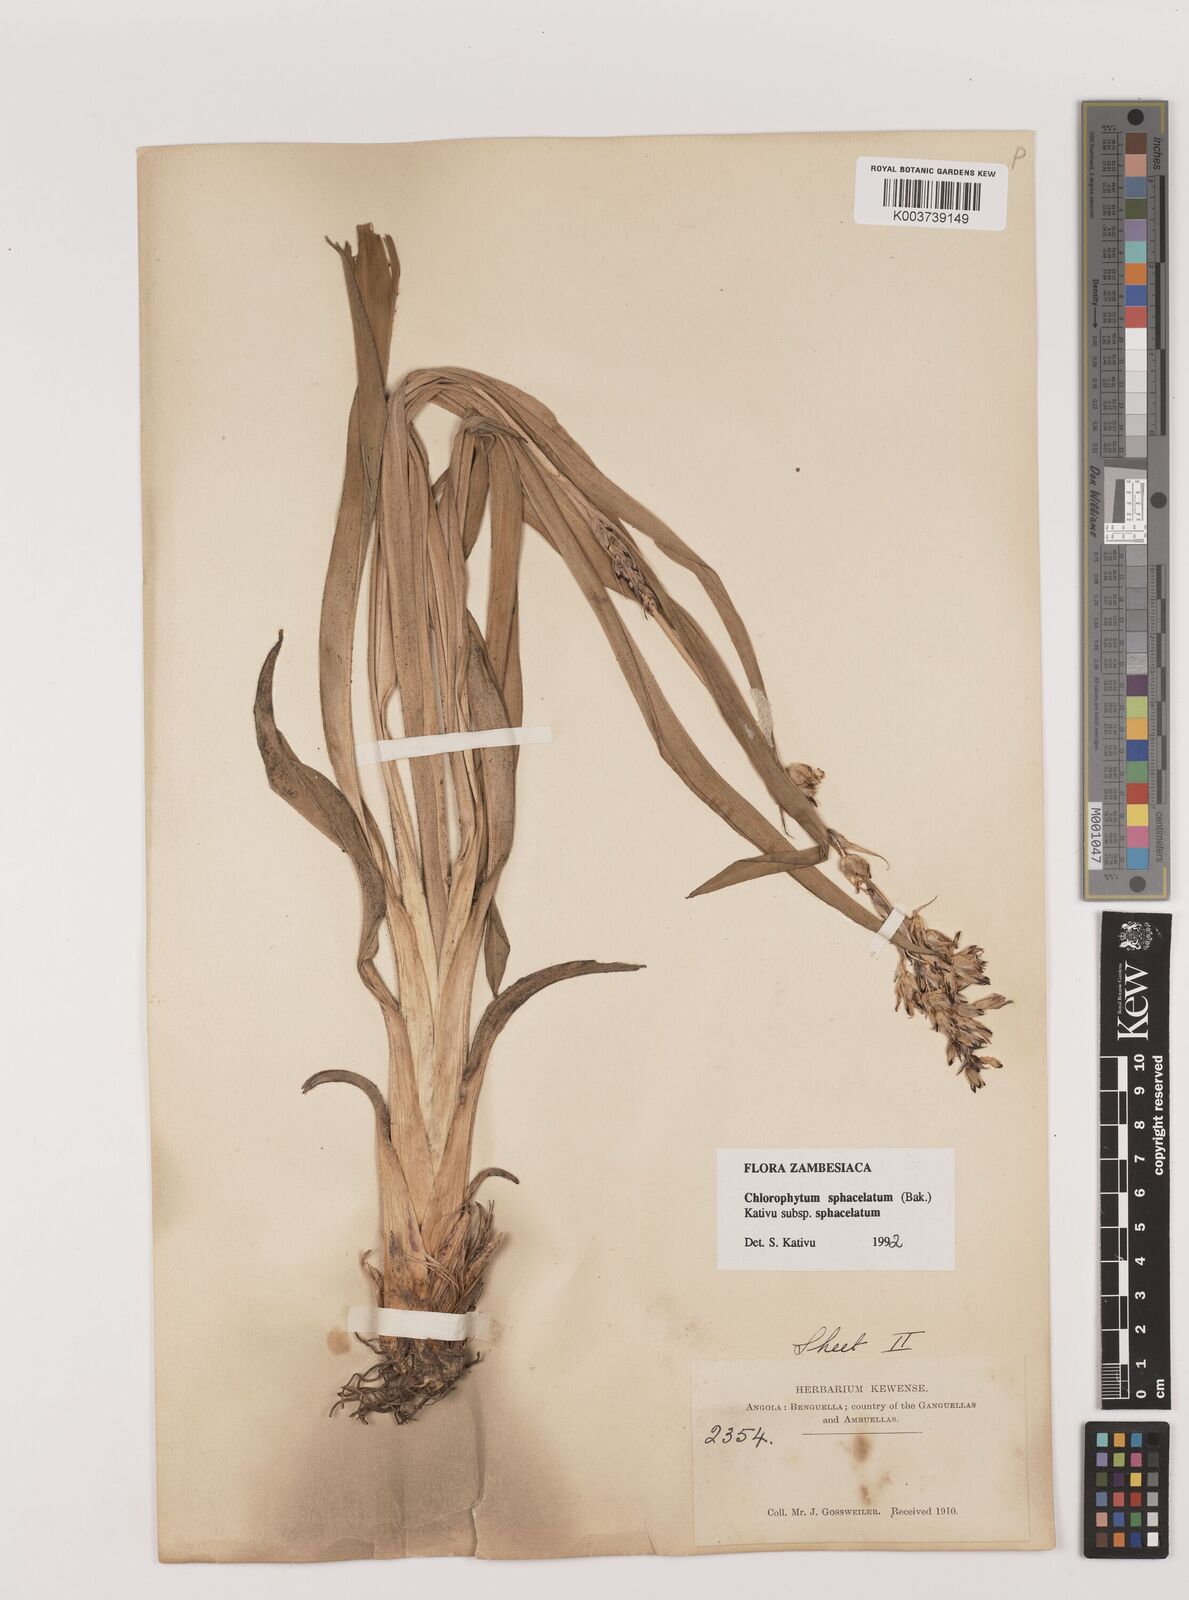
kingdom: Plantae
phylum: Tracheophyta
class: Liliopsida
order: Asparagales
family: Asparagaceae
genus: Chlorophytum
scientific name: Chlorophytum sphacelatum
